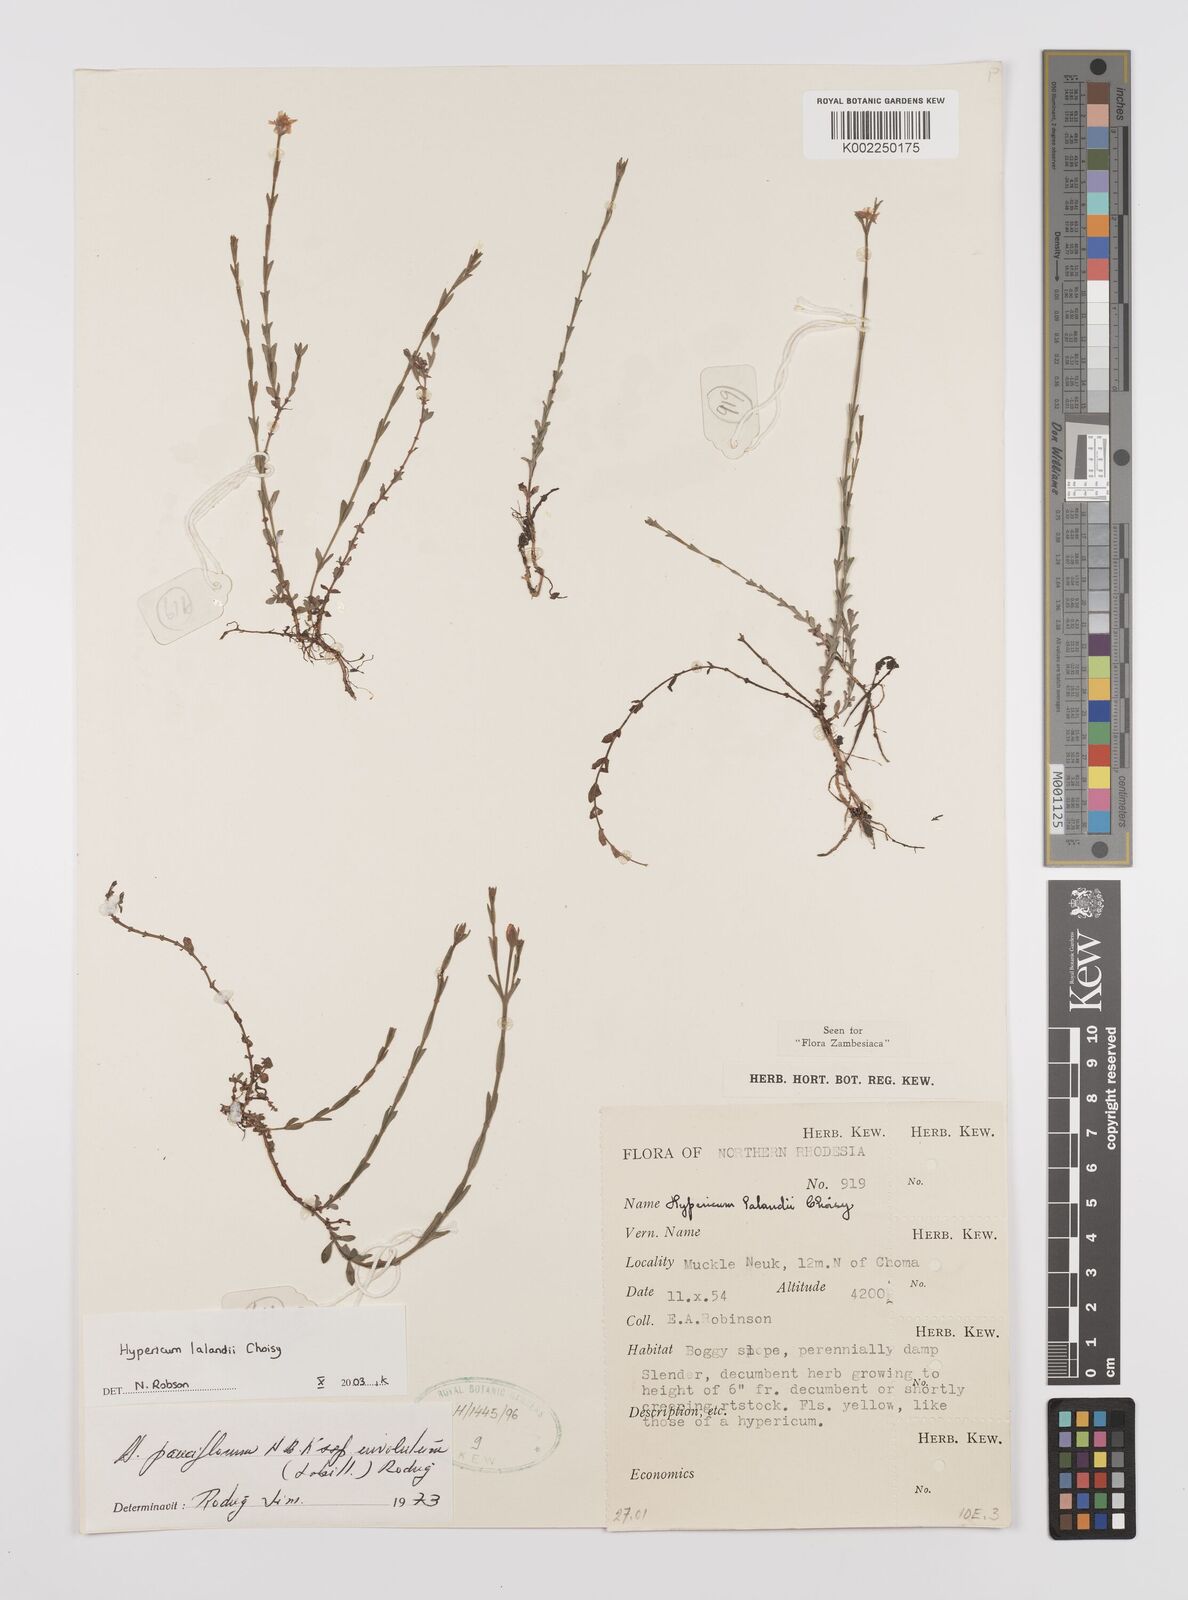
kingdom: Plantae
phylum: Tracheophyta
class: Magnoliopsida
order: Malpighiales
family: Hypericaceae
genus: Hypericum
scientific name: Hypericum lalandii
